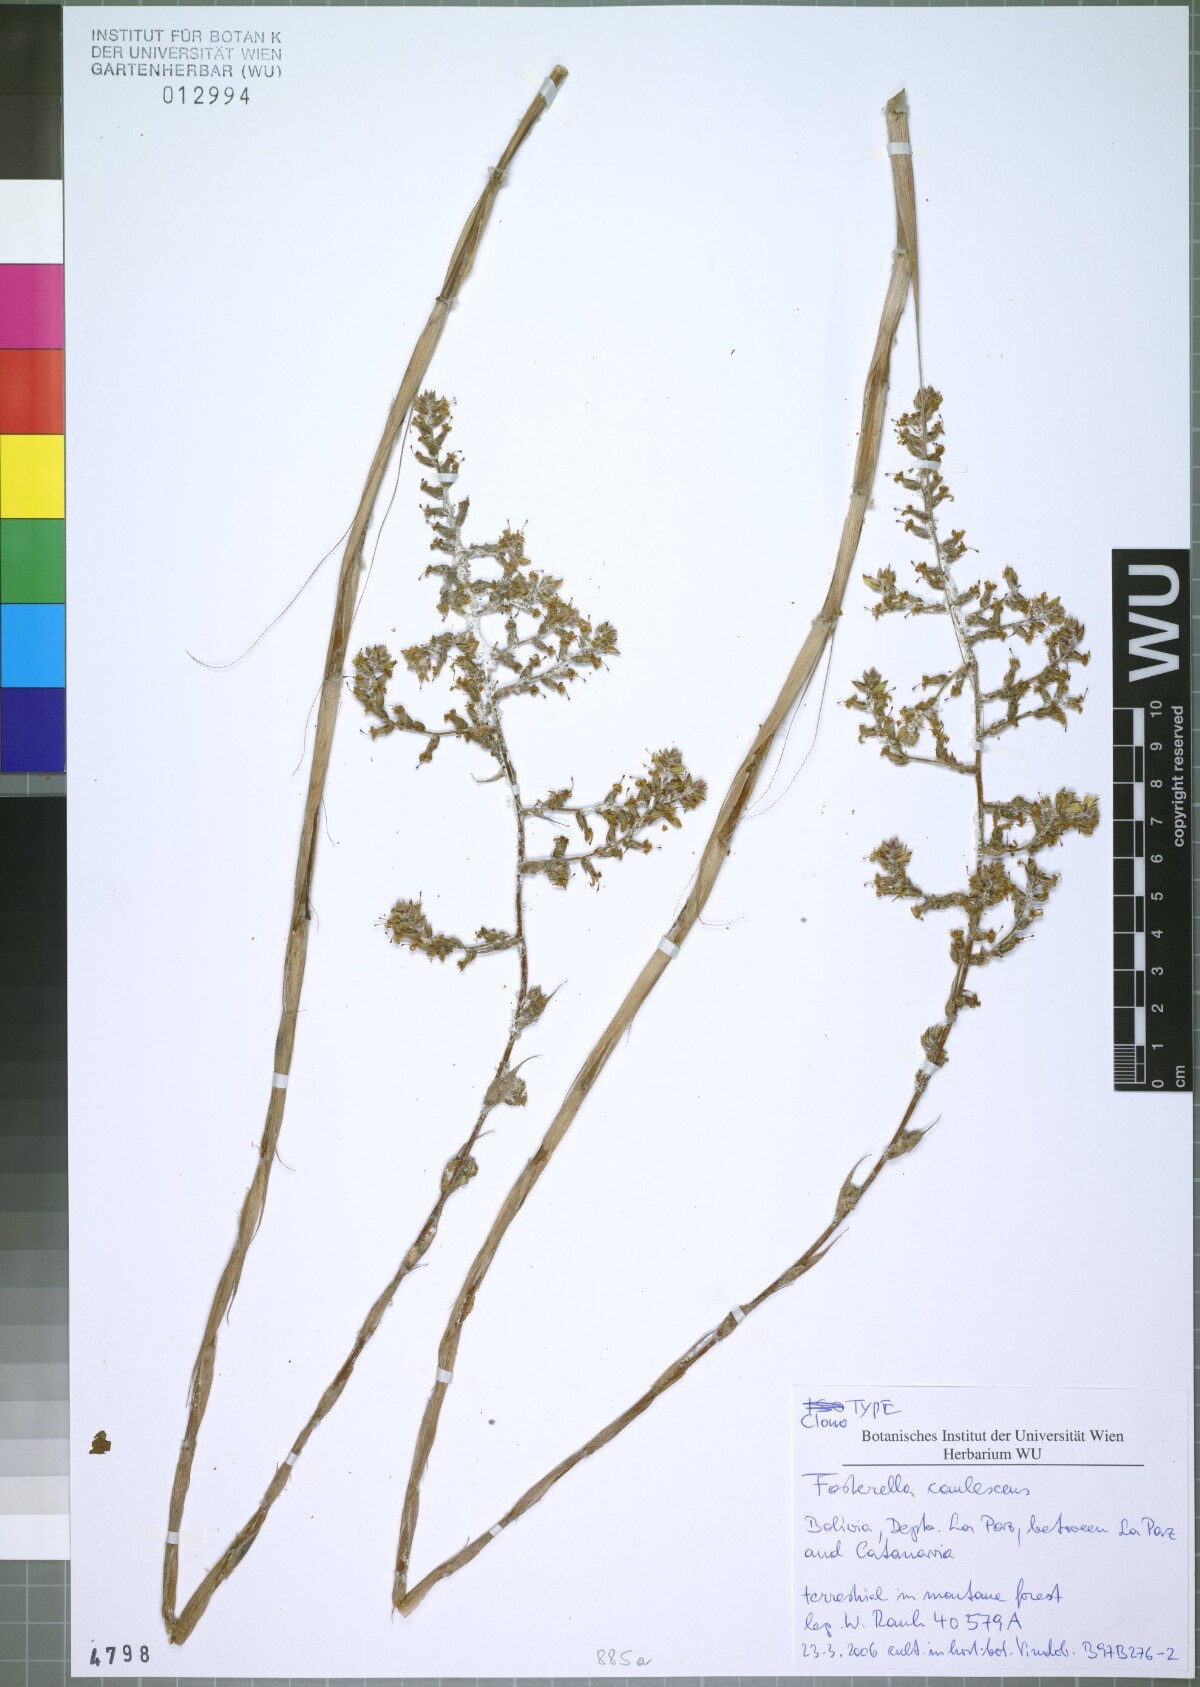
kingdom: Plantae
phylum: Tracheophyta
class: Liliopsida
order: Poales
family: Bromeliaceae
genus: Fosterella
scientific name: Fosterella caulescens
